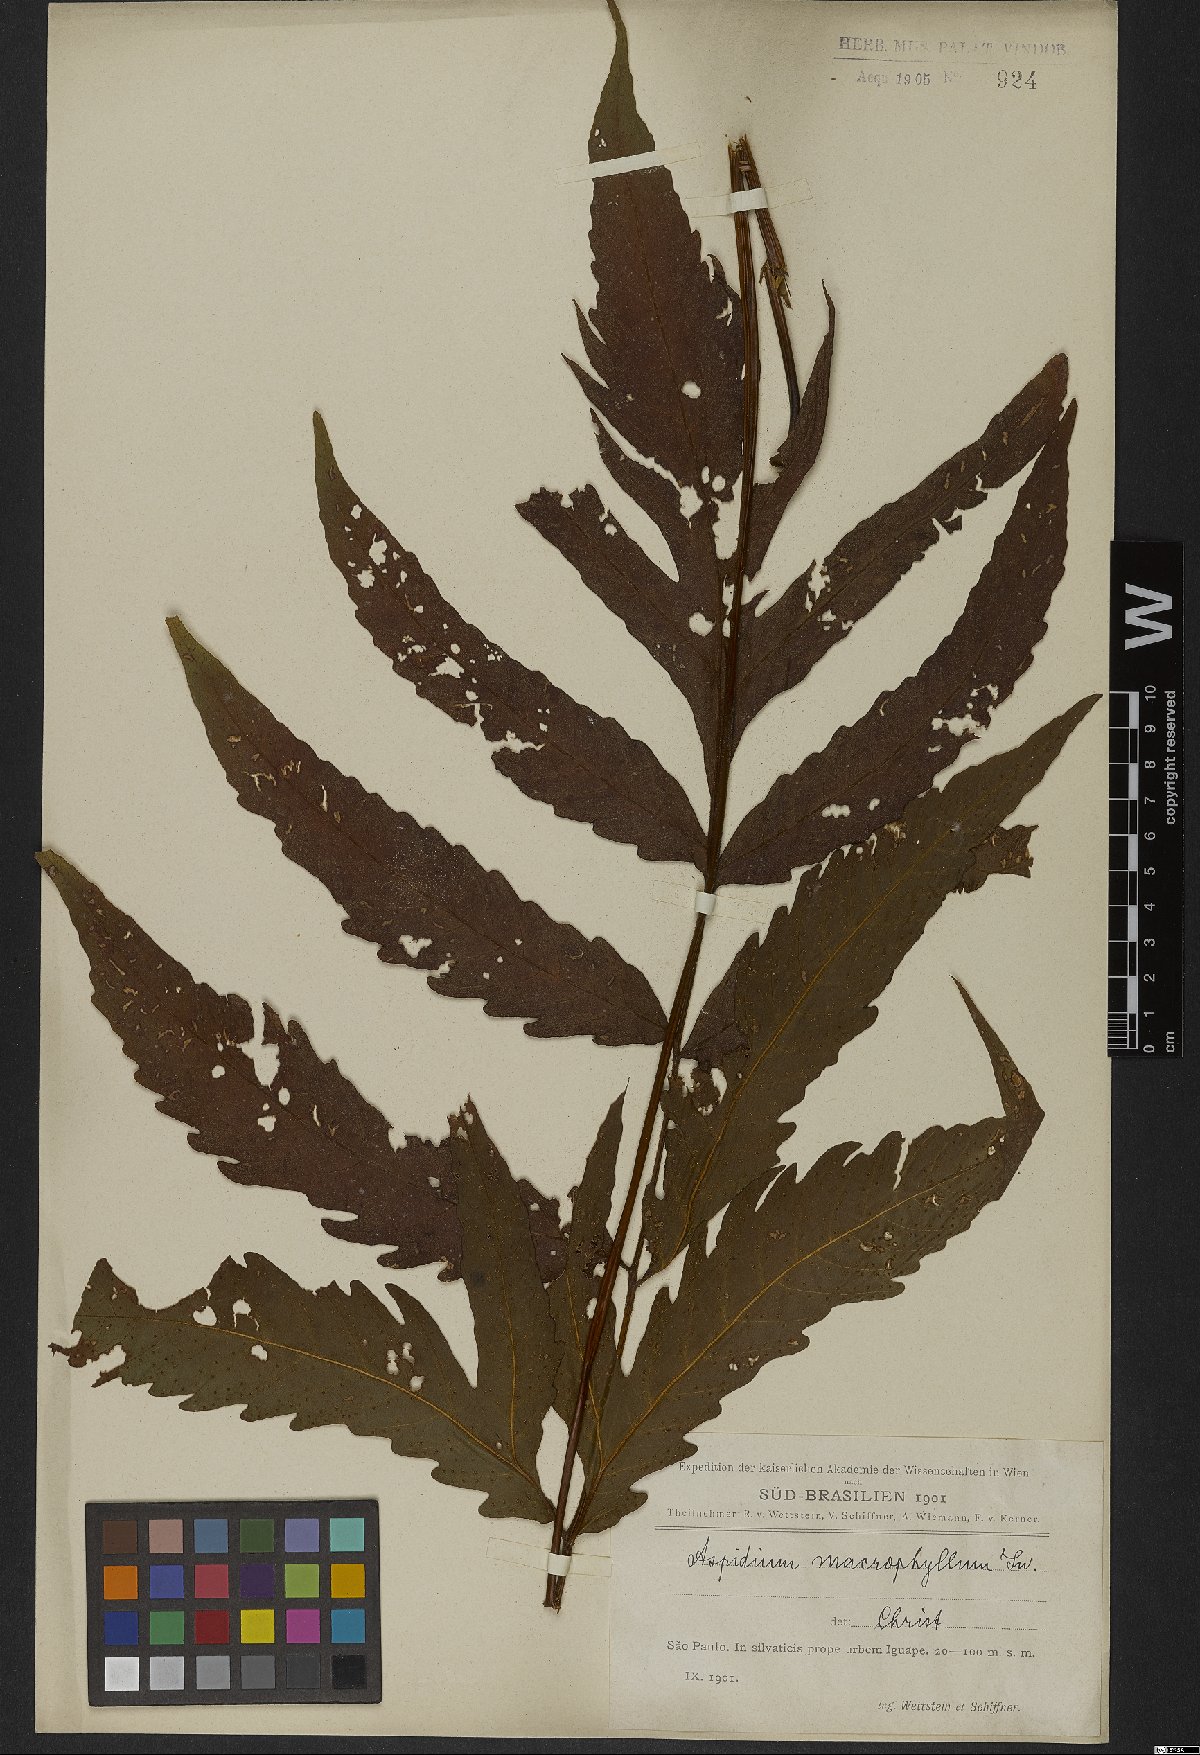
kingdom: Plantae
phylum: Tracheophyta
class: Polypodiopsida
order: Polypodiales
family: Tectariaceae
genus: Tectaria
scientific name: Tectaria incisa
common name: Incised halberd fern
